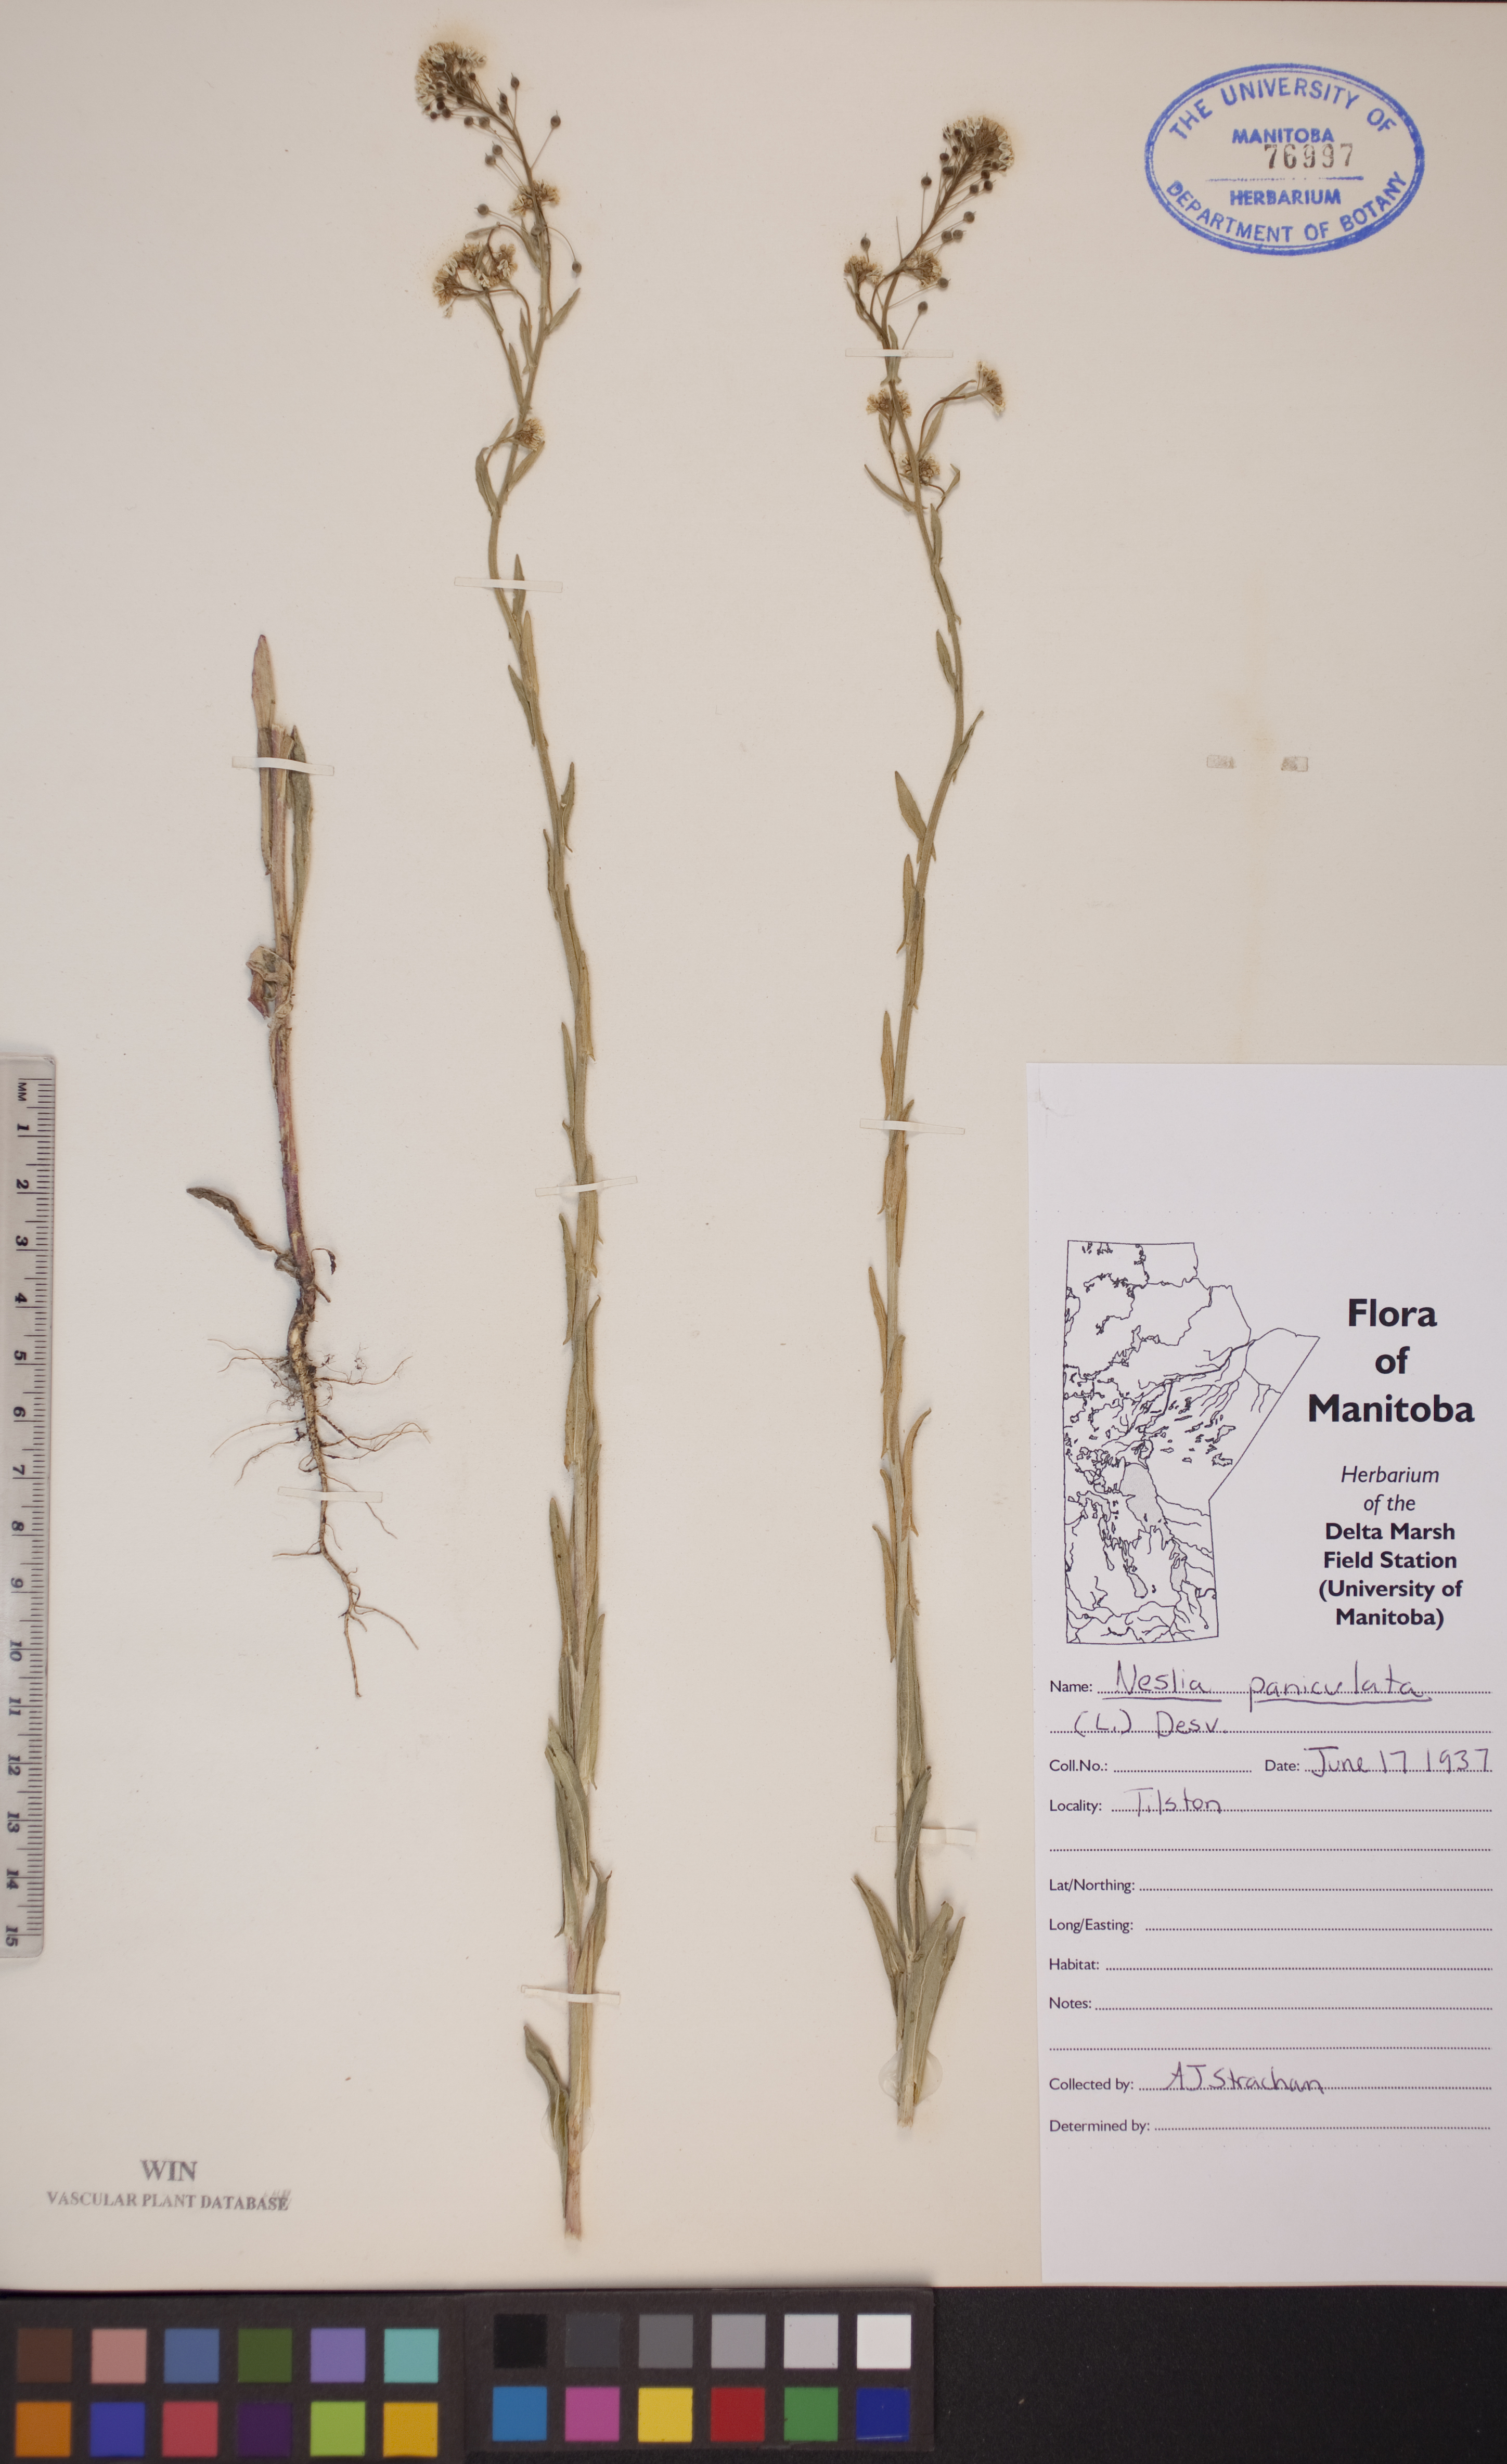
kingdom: Plantae
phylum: Tracheophyta
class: Magnoliopsida
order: Brassicales
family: Brassicaceae
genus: Neslia
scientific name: Neslia paniculata
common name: Ball mustard
